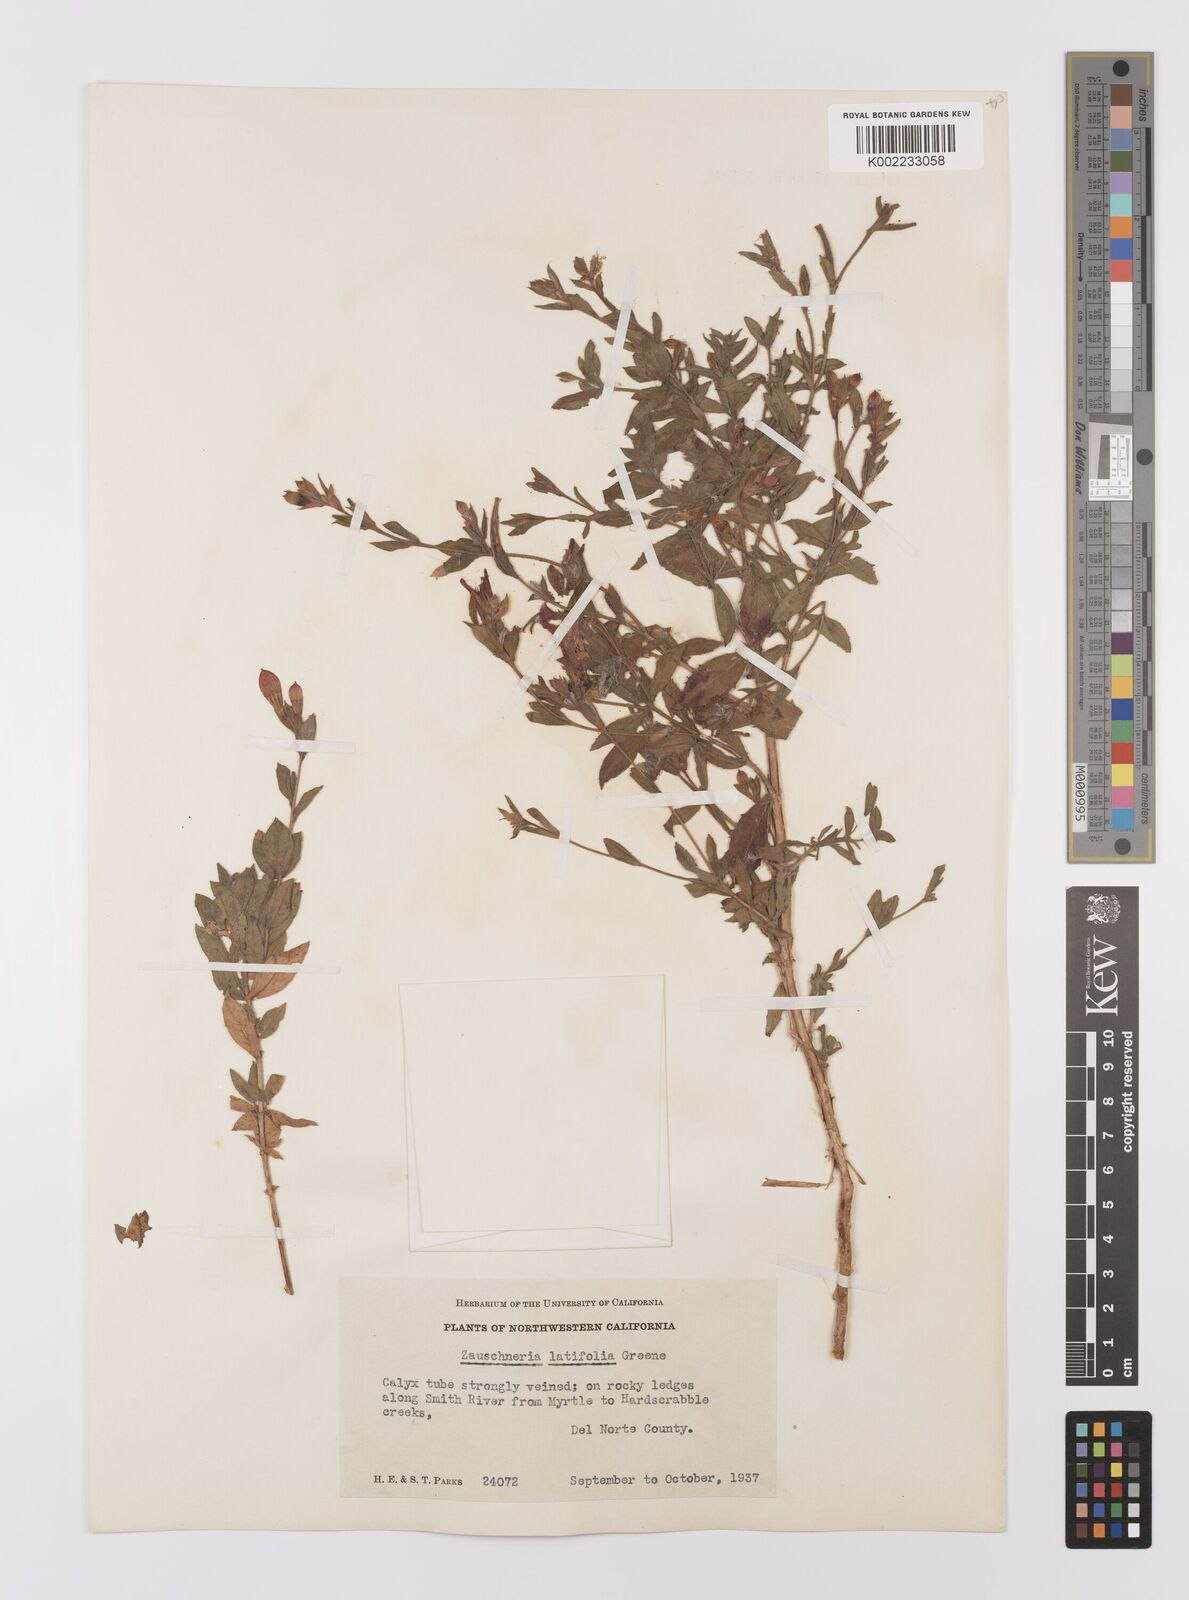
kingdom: Plantae
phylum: Tracheophyta
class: Magnoliopsida
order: Myrtales
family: Onagraceae
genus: Epilobium
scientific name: Epilobium
